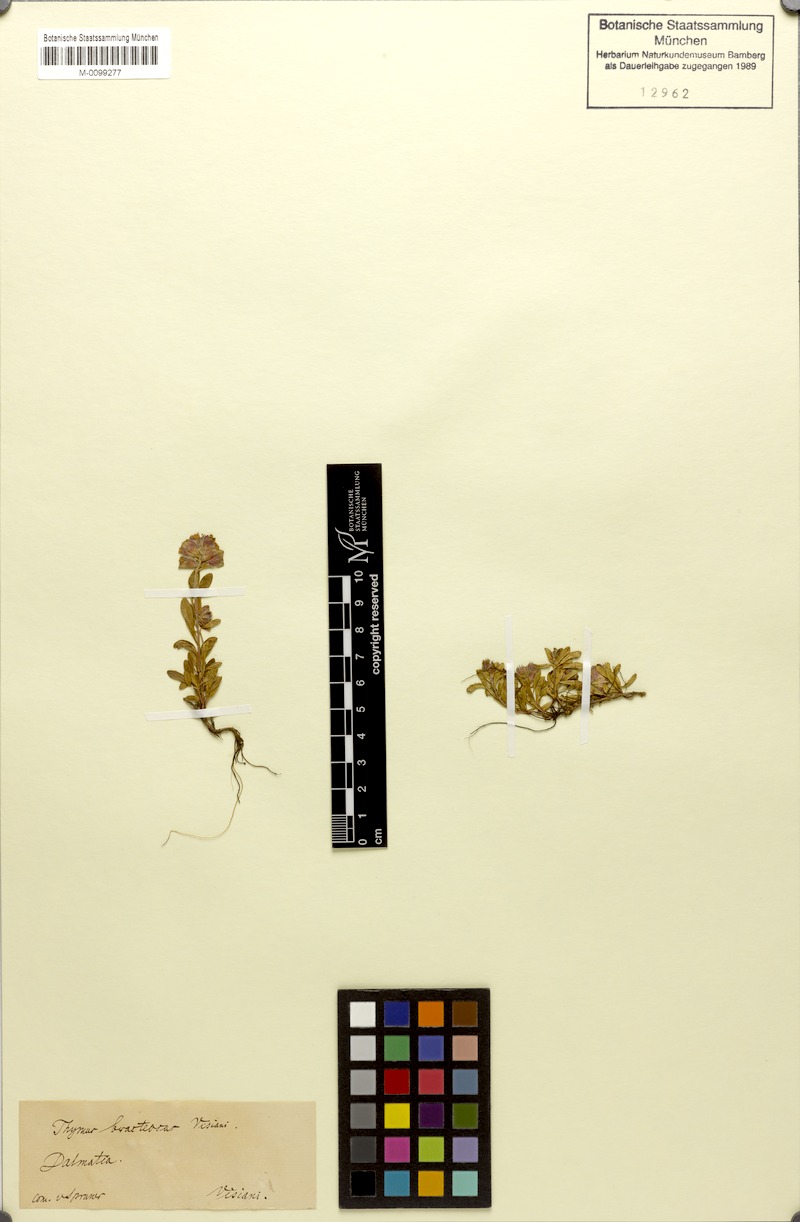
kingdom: Plantae
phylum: Tracheophyta
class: Magnoliopsida
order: Lamiales
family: Lamiaceae
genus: Thymus
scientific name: Thymus bracteosus
